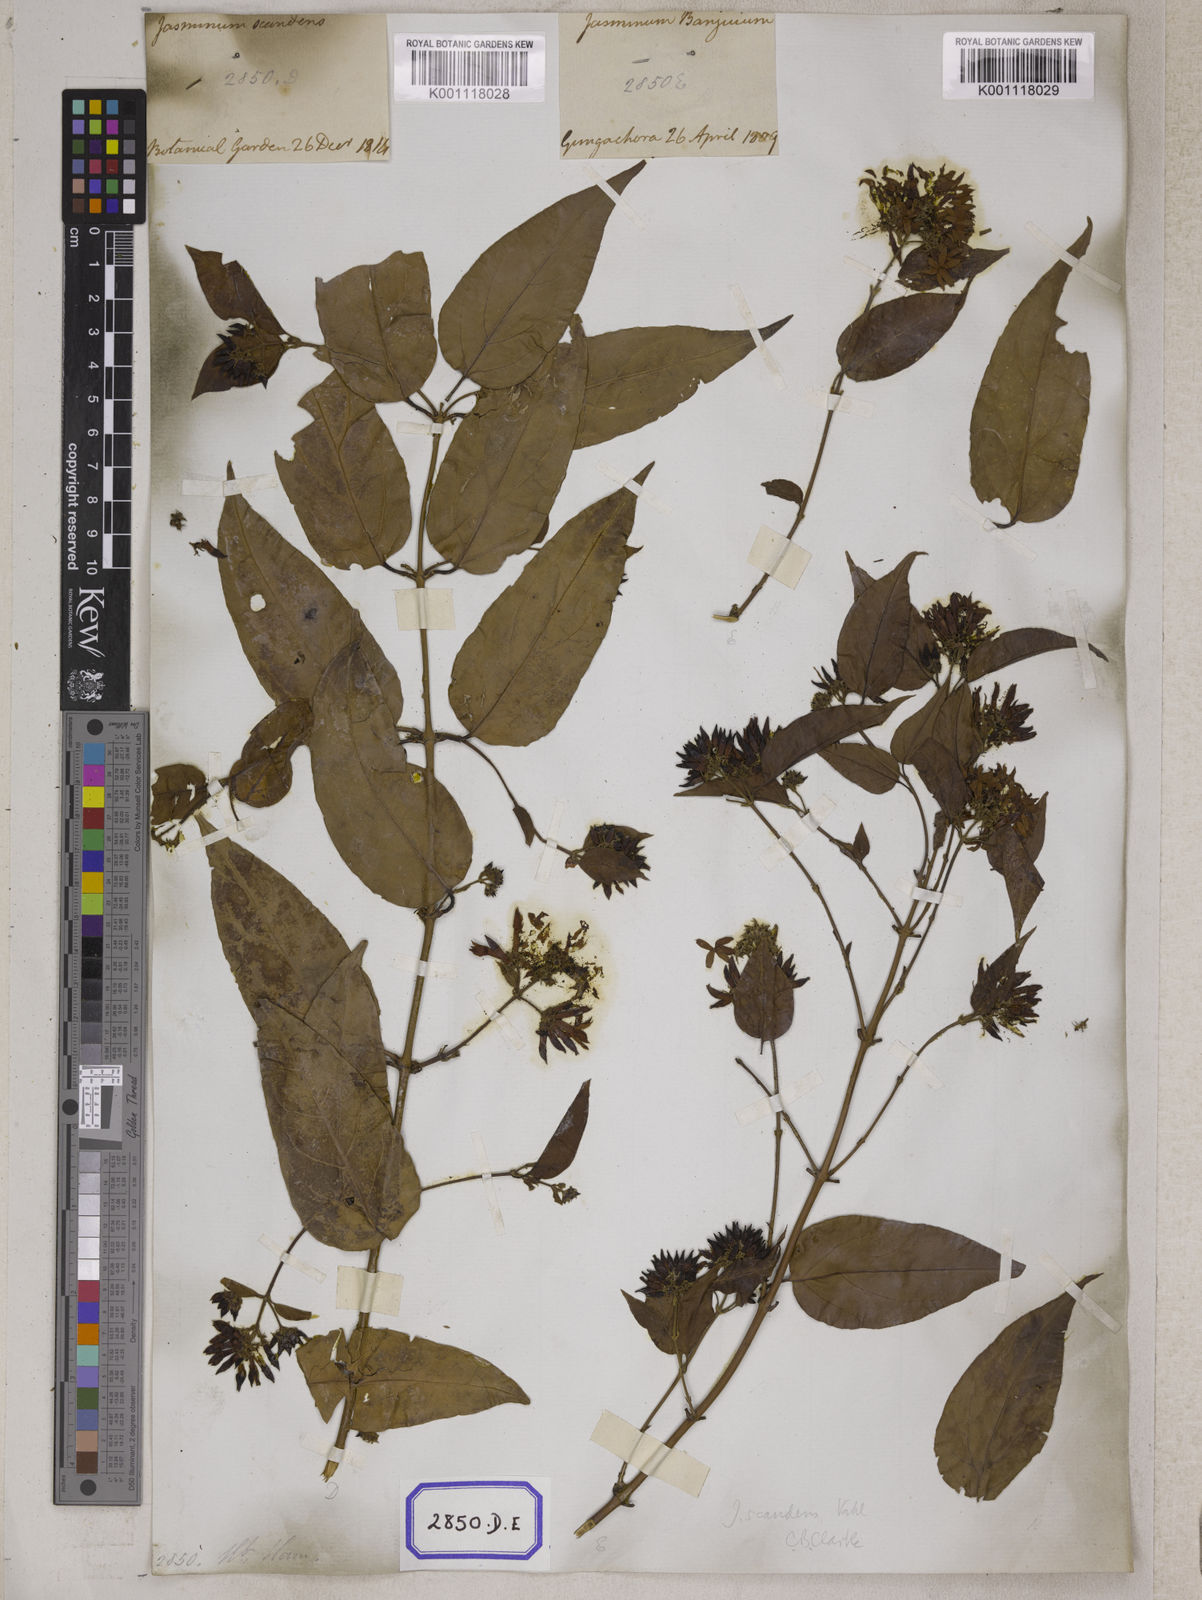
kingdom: Plantae
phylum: Tracheophyta
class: Magnoliopsida
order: Lamiales
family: Oleaceae
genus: Jasminum
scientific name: Jasminum scandens
